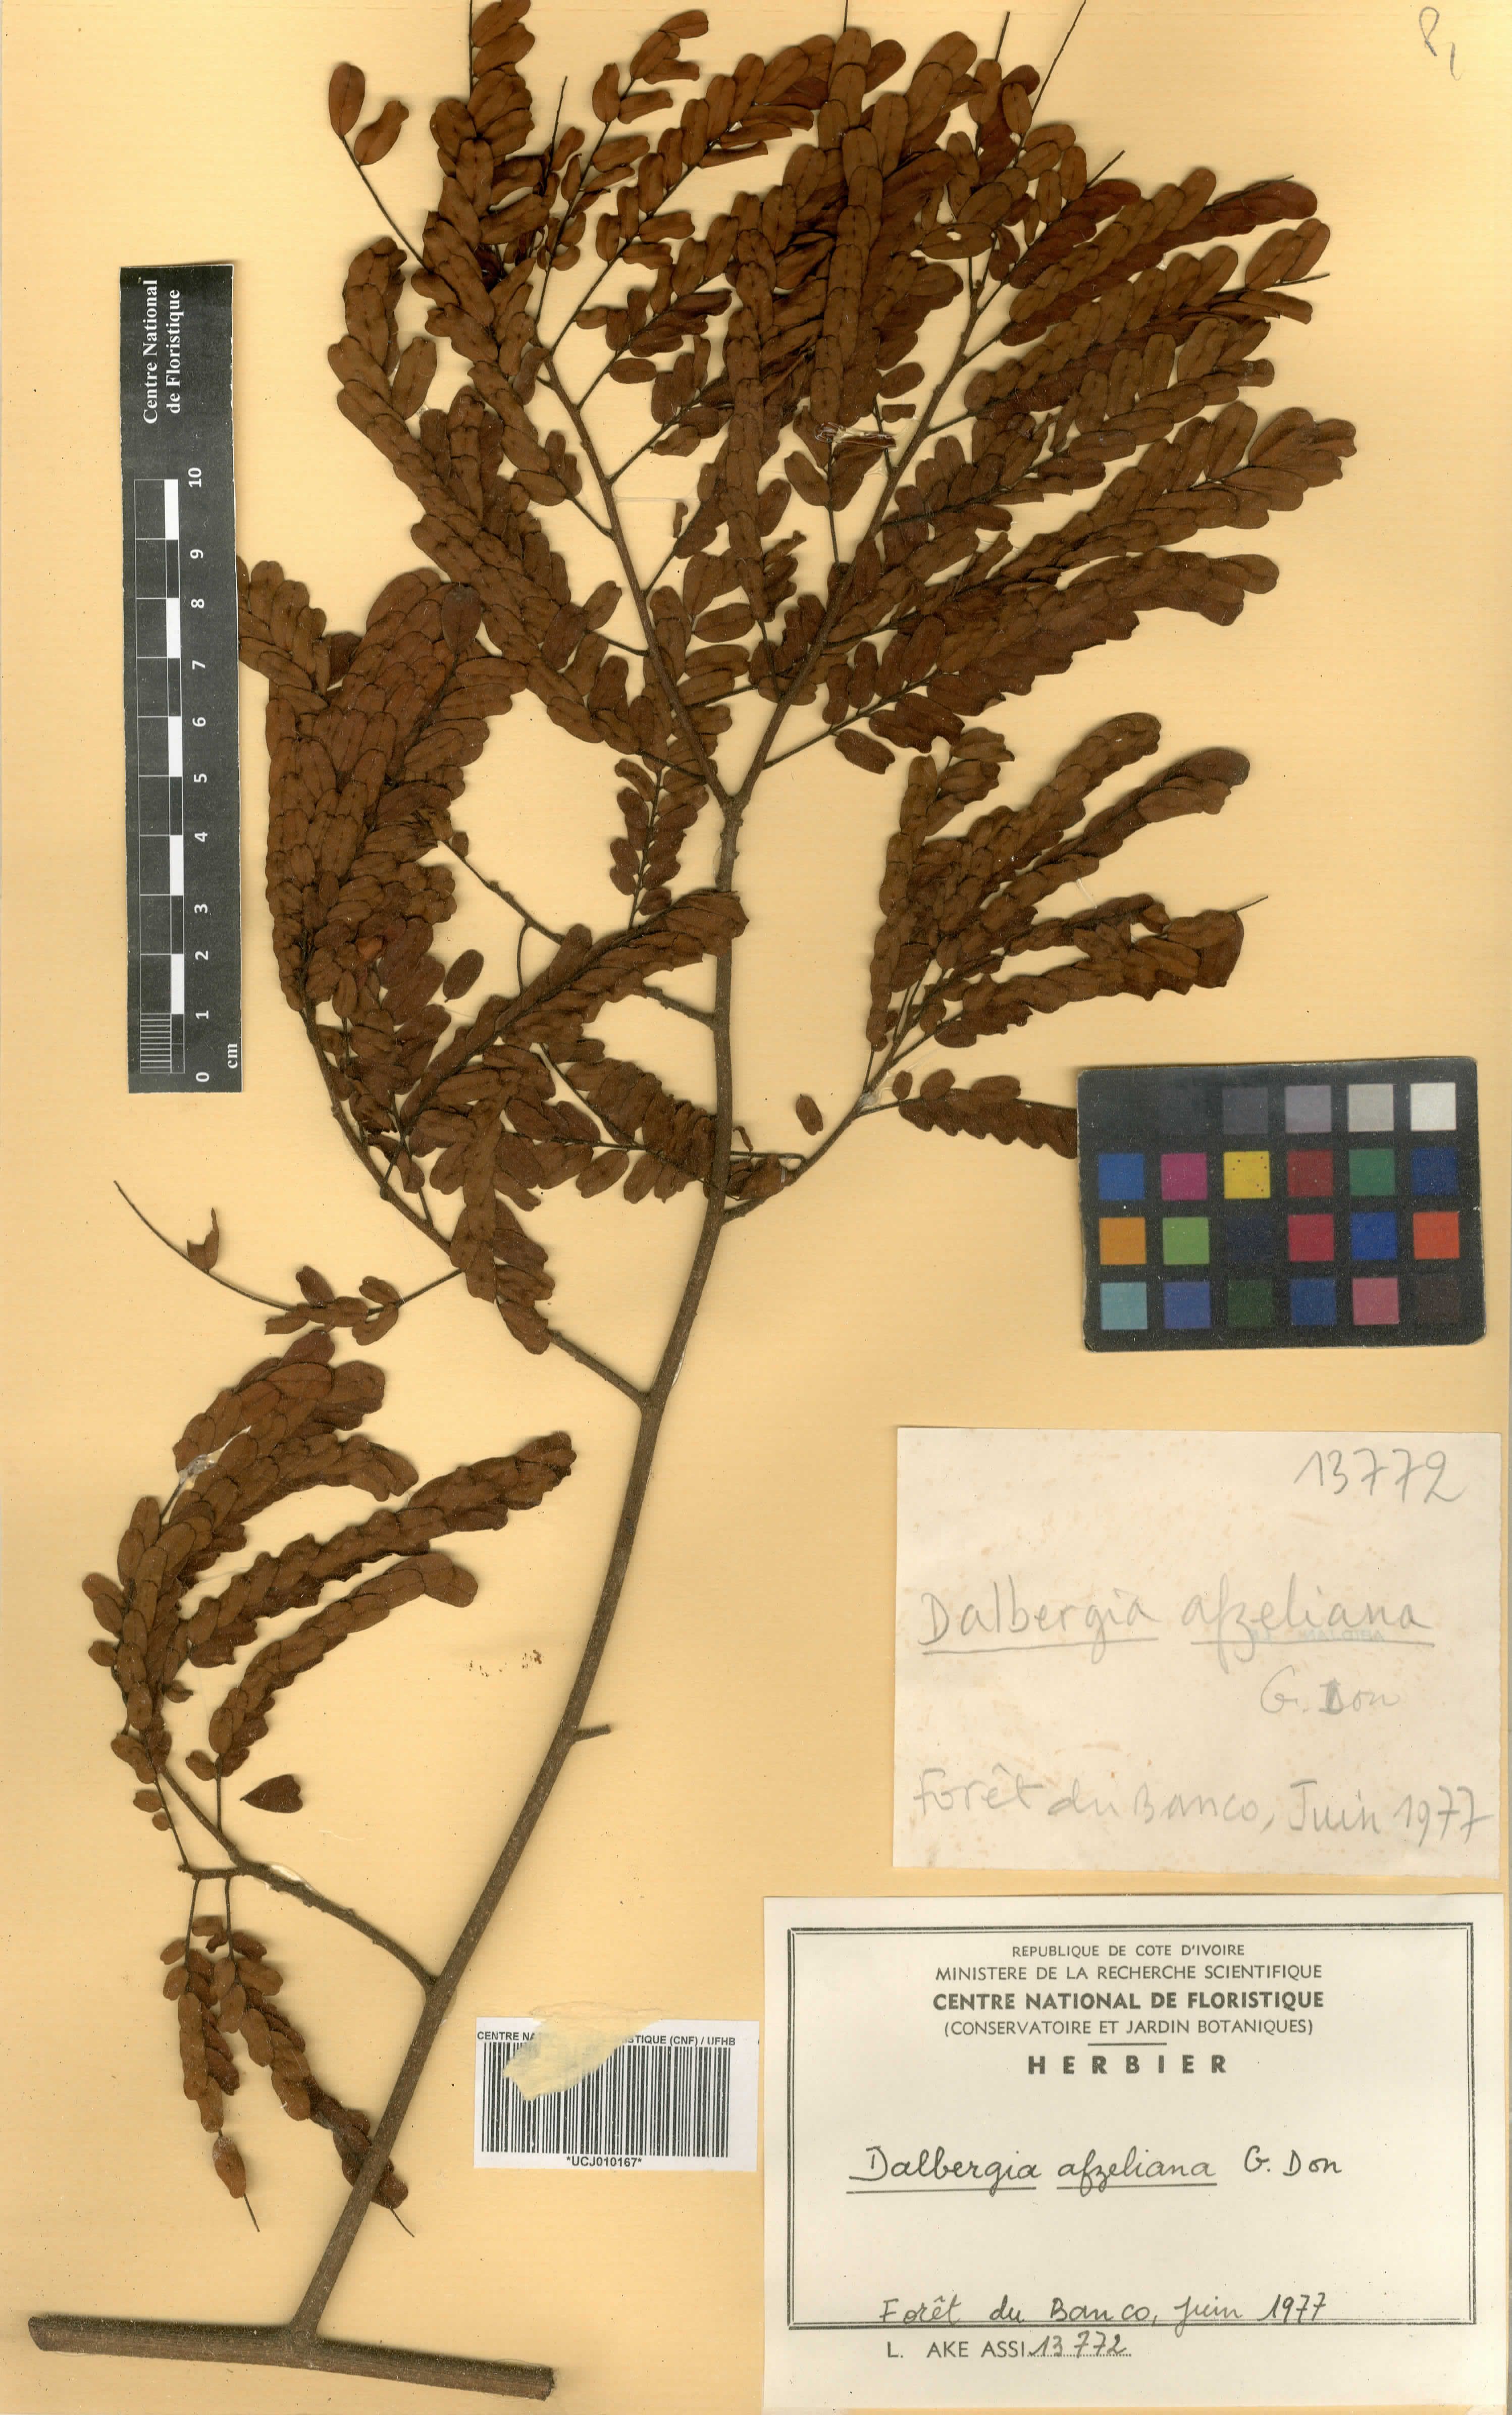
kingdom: Plantae
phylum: Tracheophyta
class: Magnoliopsida
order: Fabales
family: Fabaceae
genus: Dalbergia
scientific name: Dalbergia afzeliana
